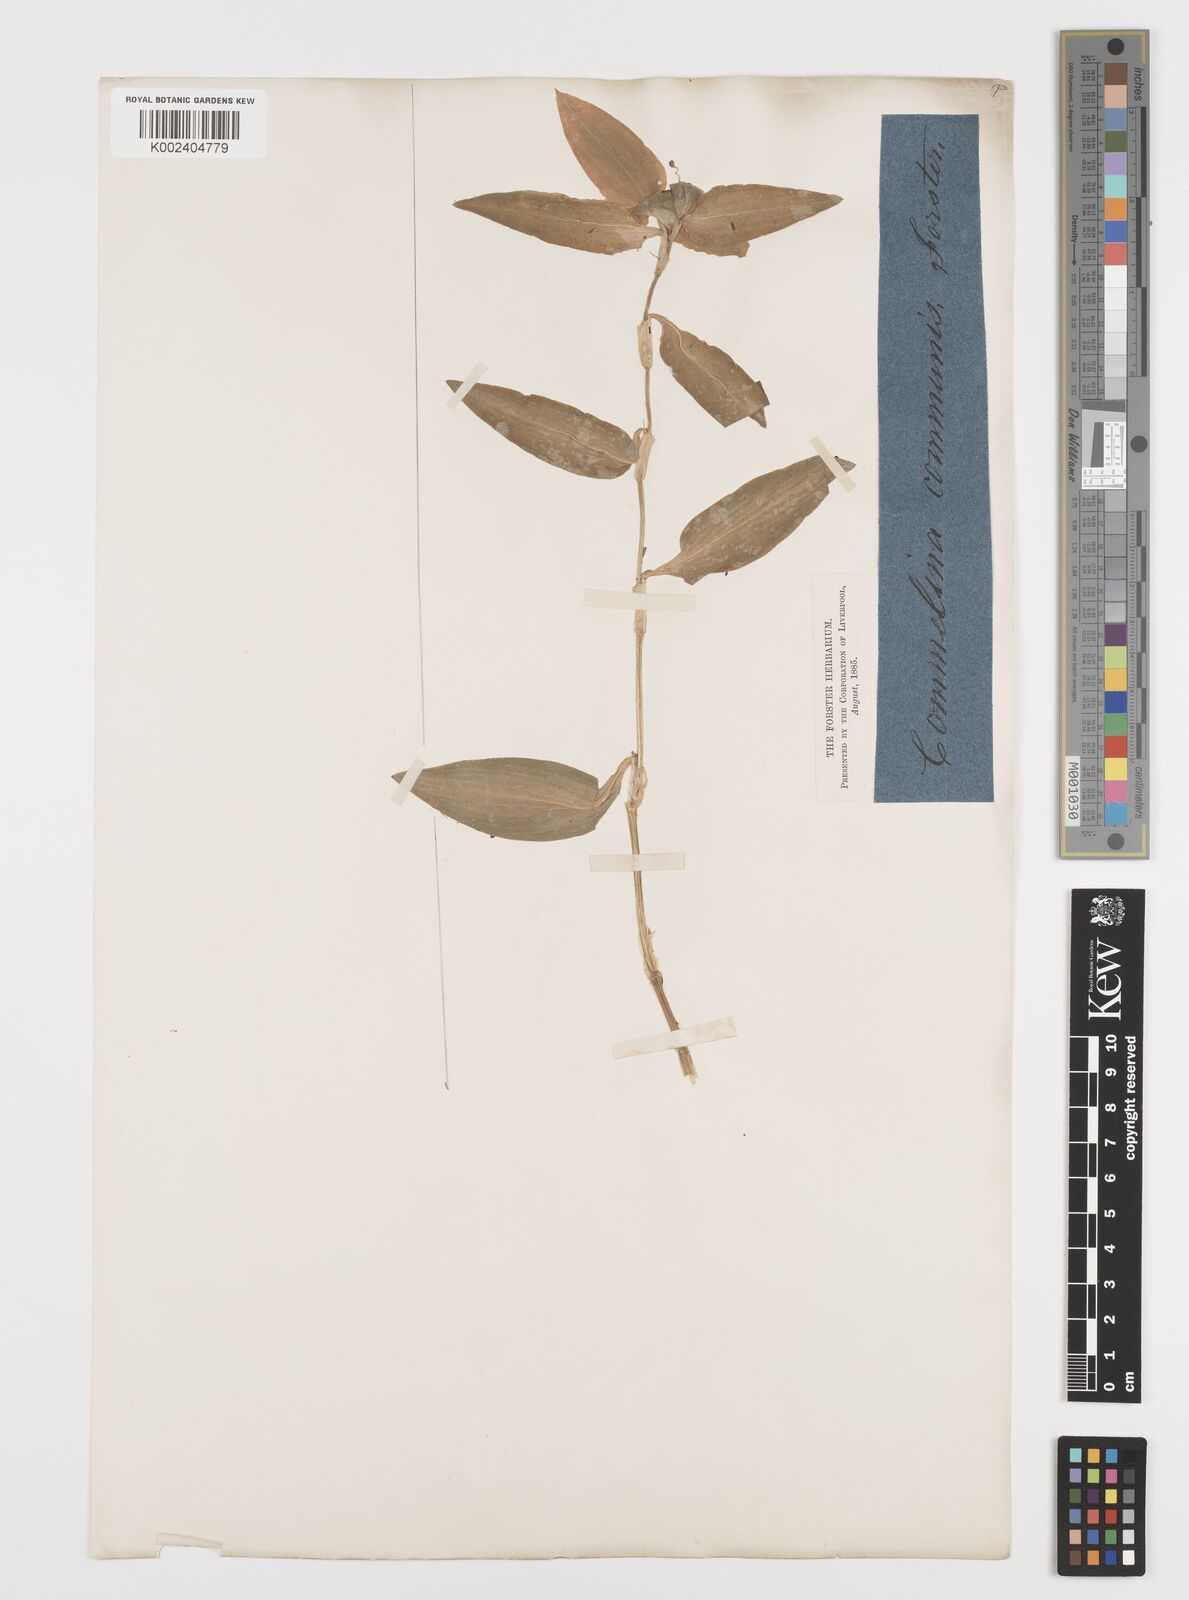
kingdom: Plantae
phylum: Tracheophyta
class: Liliopsida
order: Commelinales
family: Commelinaceae
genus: Commelina
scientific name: Commelina communis
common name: Asiatic dayflower
